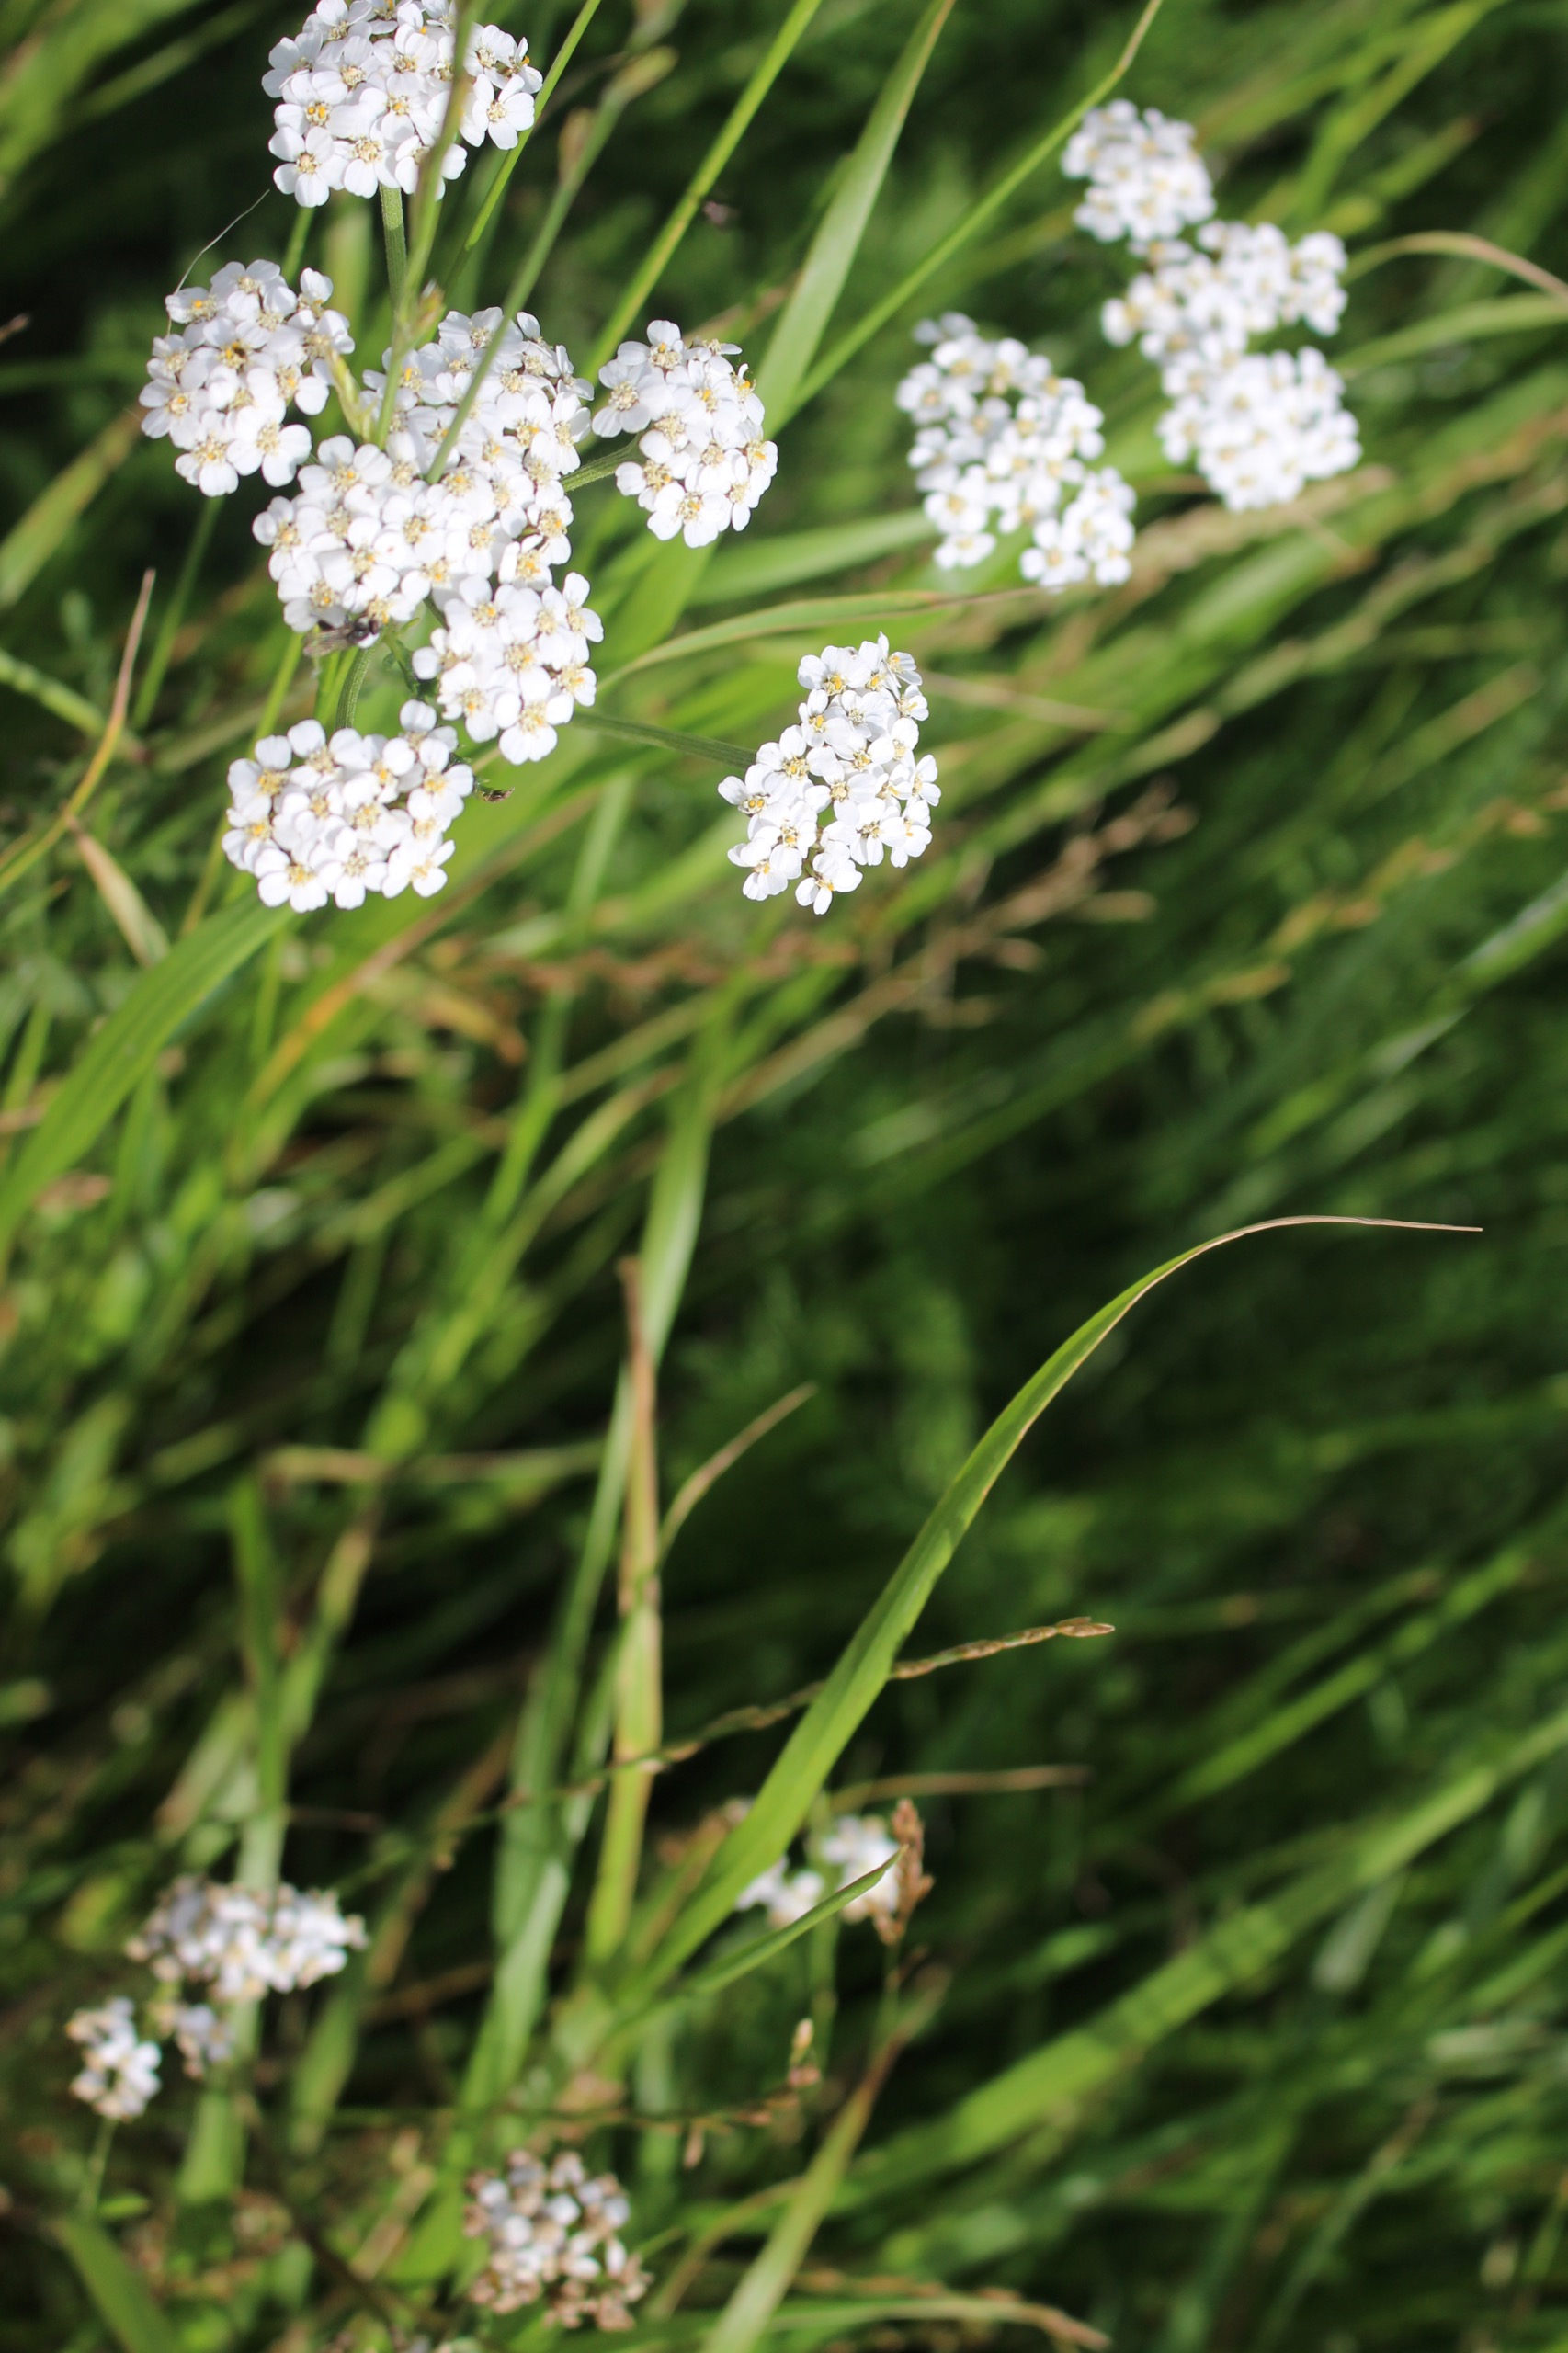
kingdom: Plantae
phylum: Tracheophyta
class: Magnoliopsida
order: Asterales
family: Asteraceae
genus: Achillea
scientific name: Achillea millefolium
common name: Almindelig røllike
